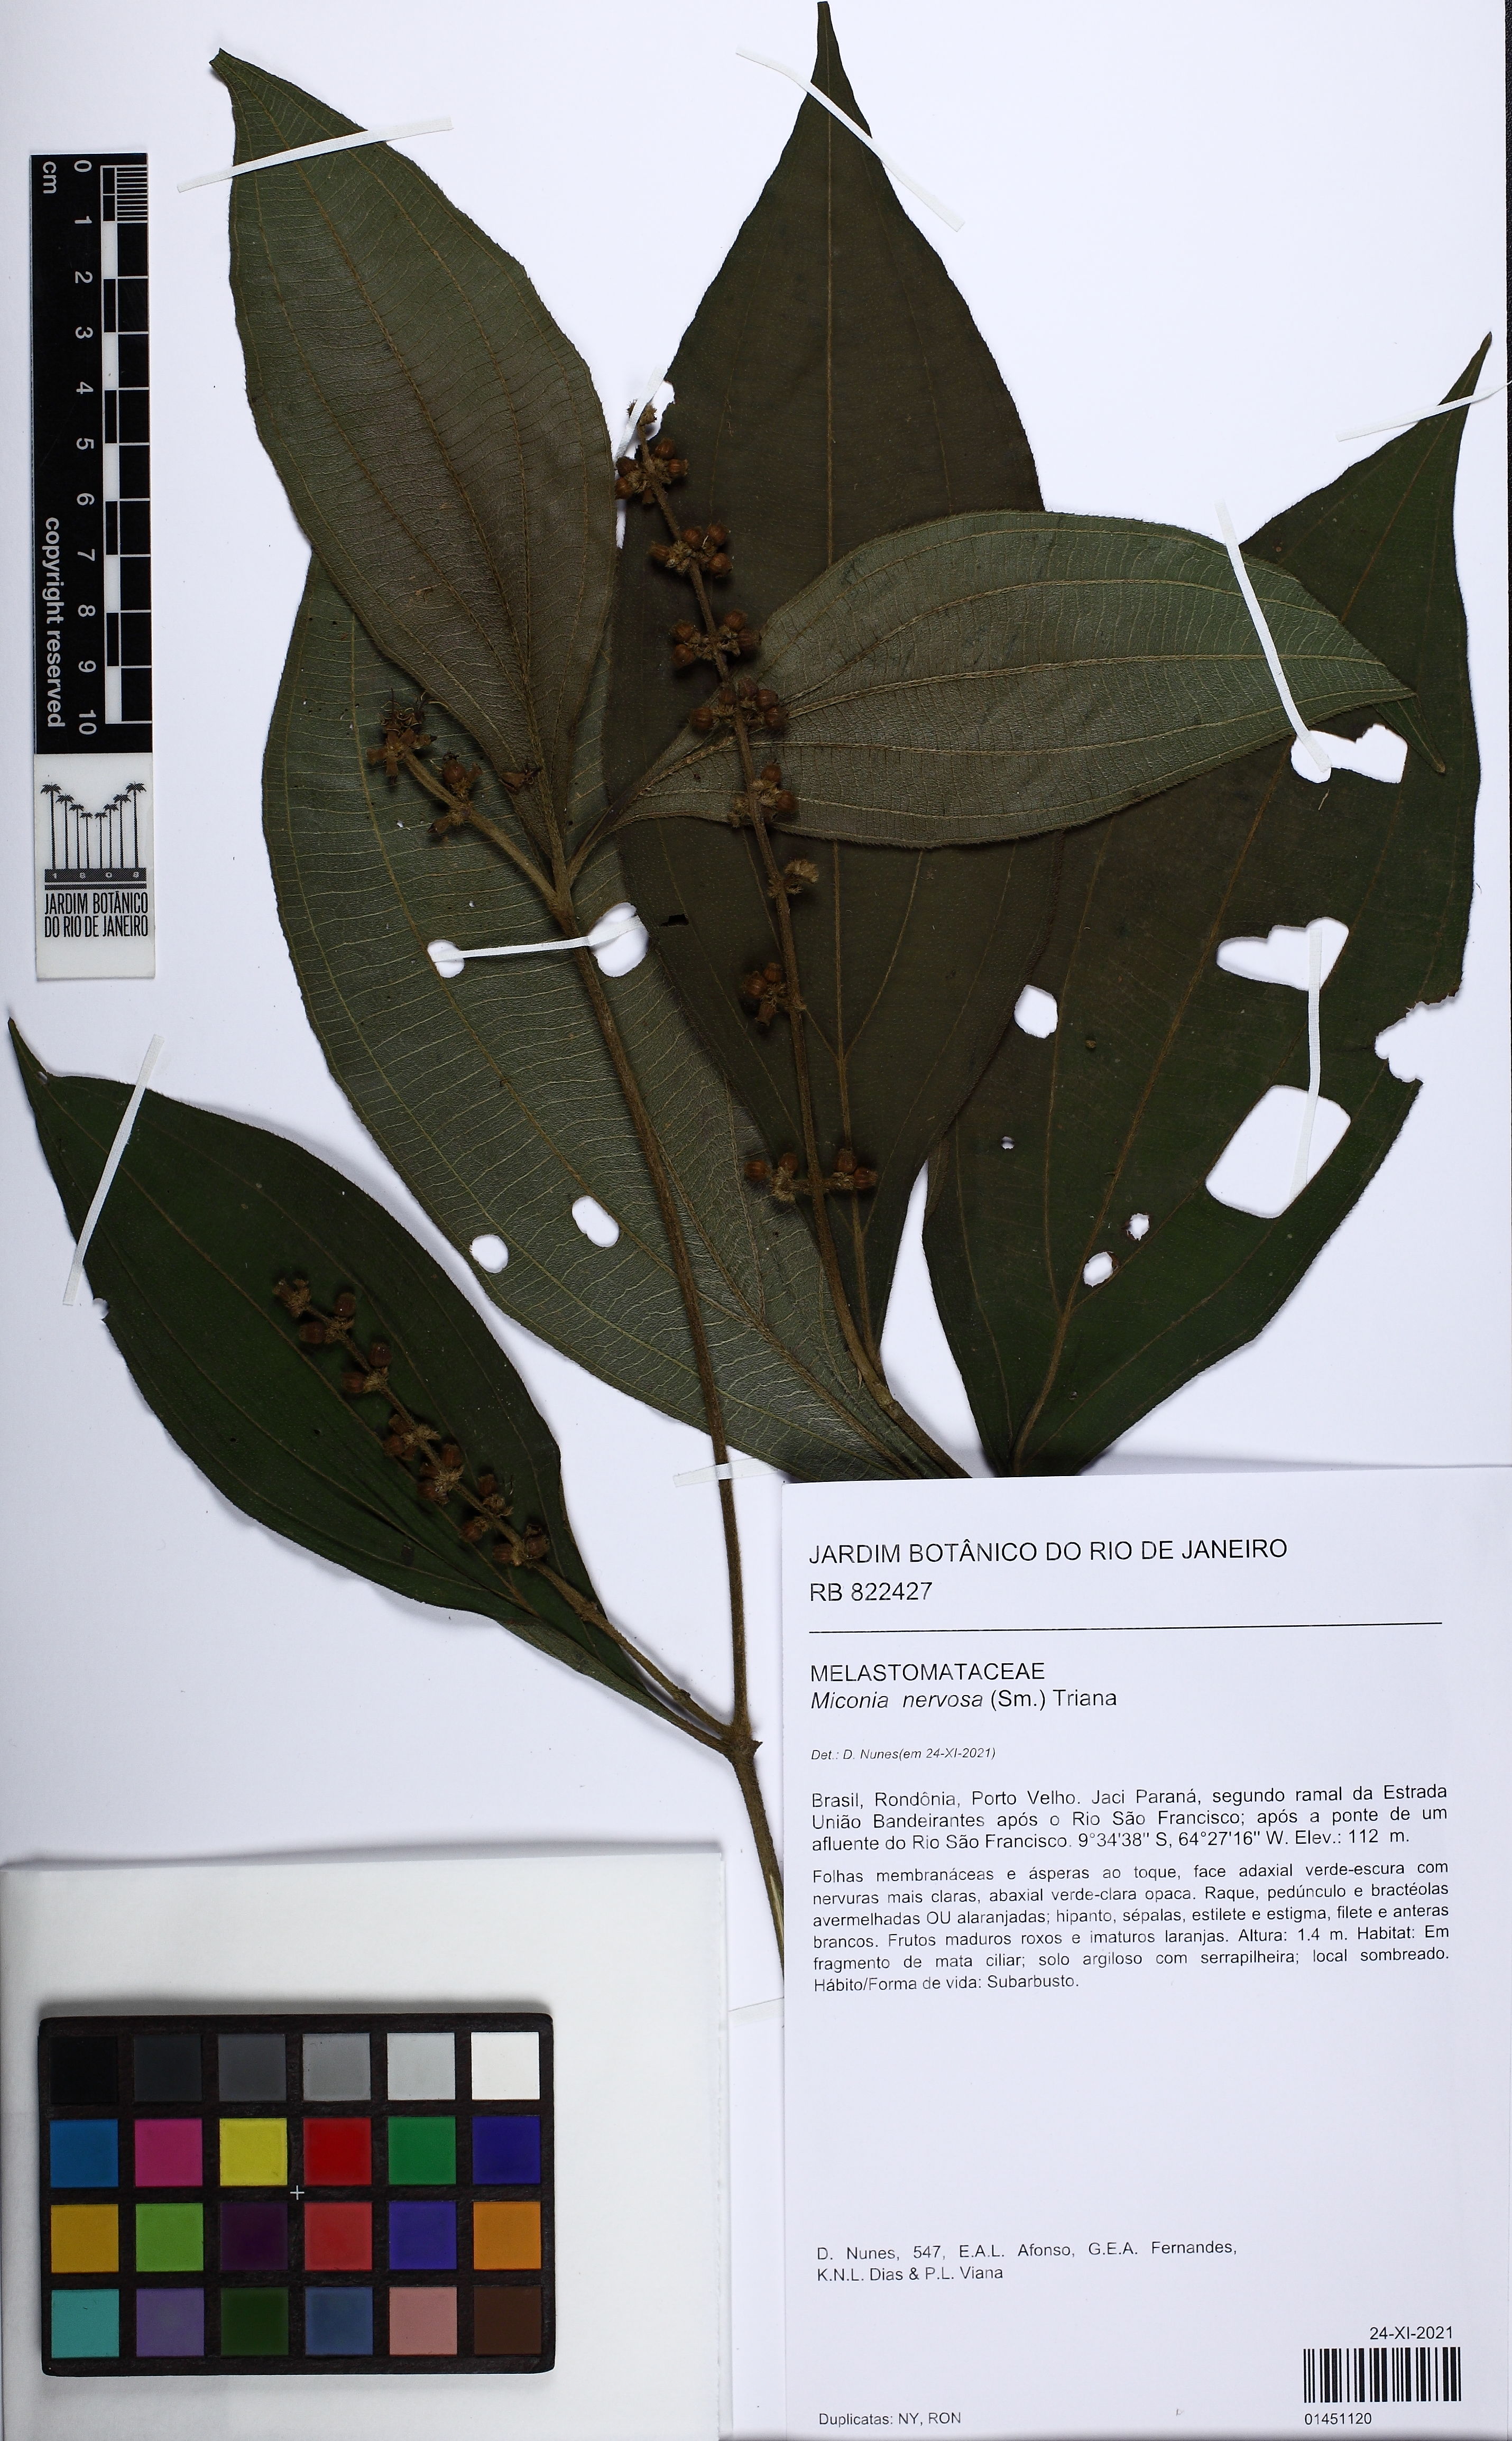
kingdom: Plantae
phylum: Tracheophyta
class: Magnoliopsida
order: Myrtales
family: Melastomataceae
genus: Miconia
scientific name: Miconia nervosa
